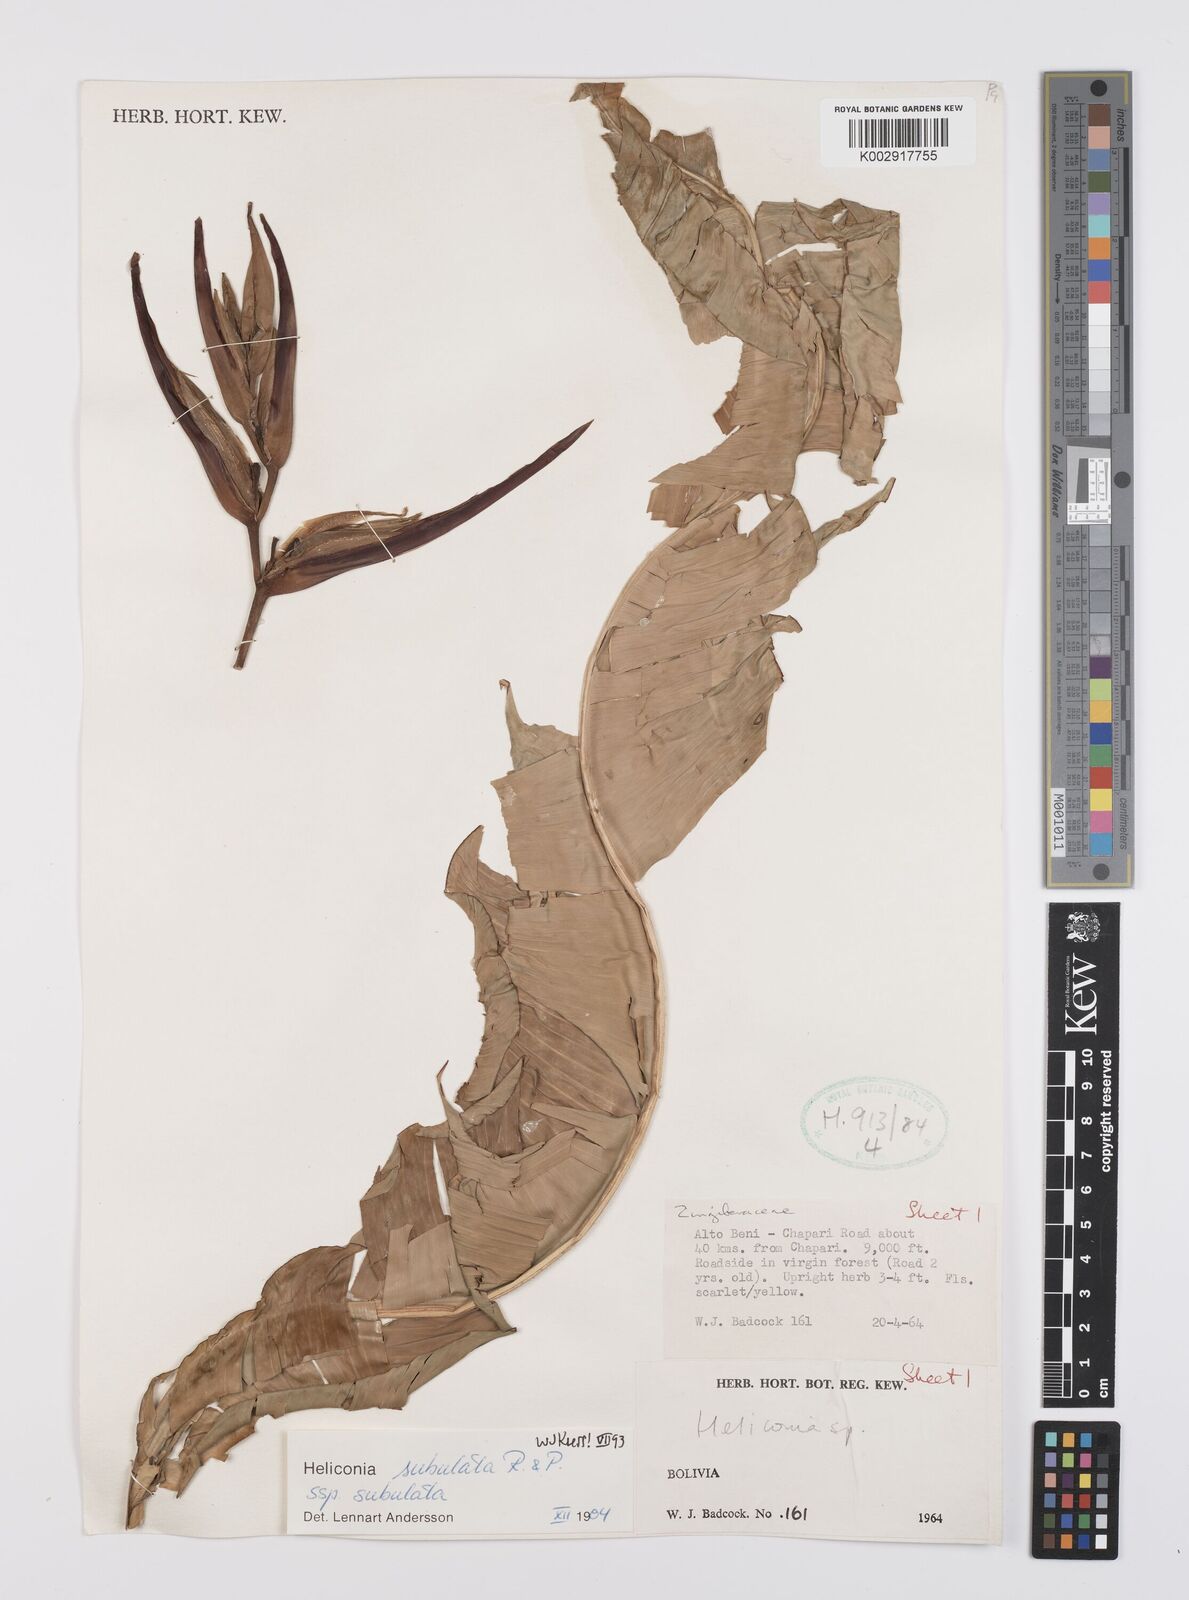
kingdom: Plantae
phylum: Tracheophyta
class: Liliopsida
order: Zingiberales
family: Heliconiaceae
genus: Heliconia
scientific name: Heliconia subulata
